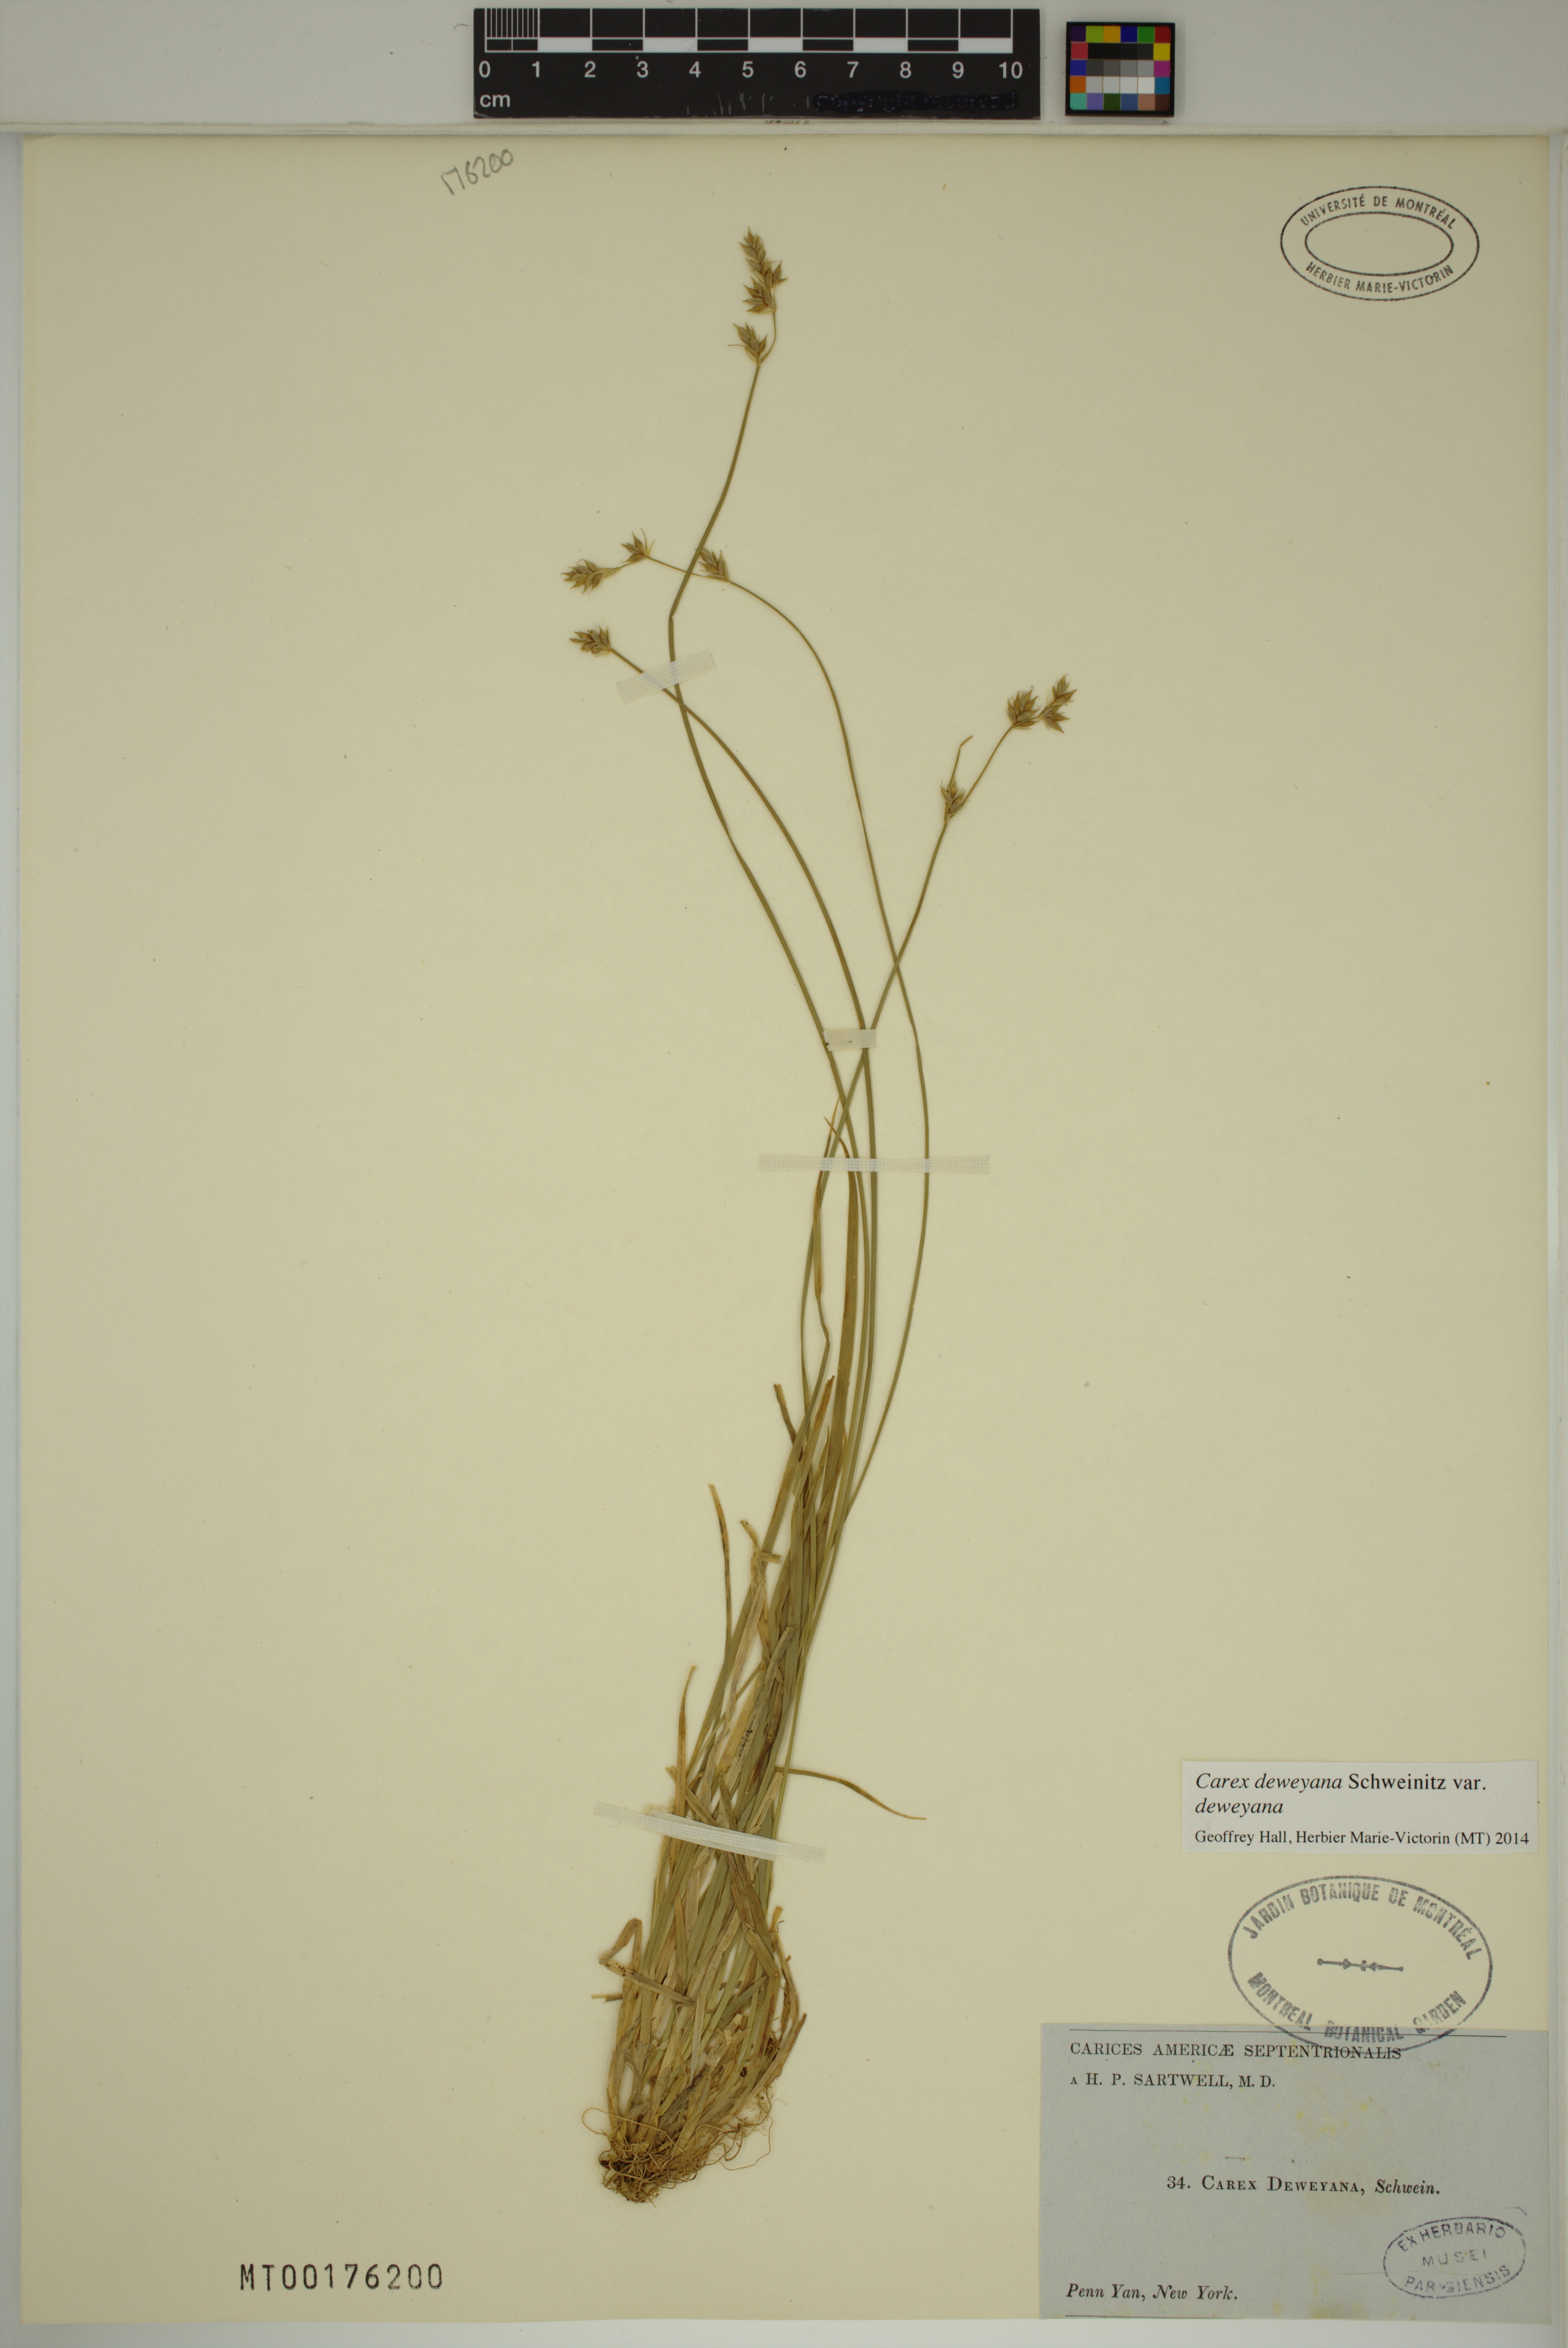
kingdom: Plantae
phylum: Tracheophyta
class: Liliopsida
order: Poales
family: Cyperaceae
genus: Carex
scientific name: Carex deweyana
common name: Dewey's sedge
